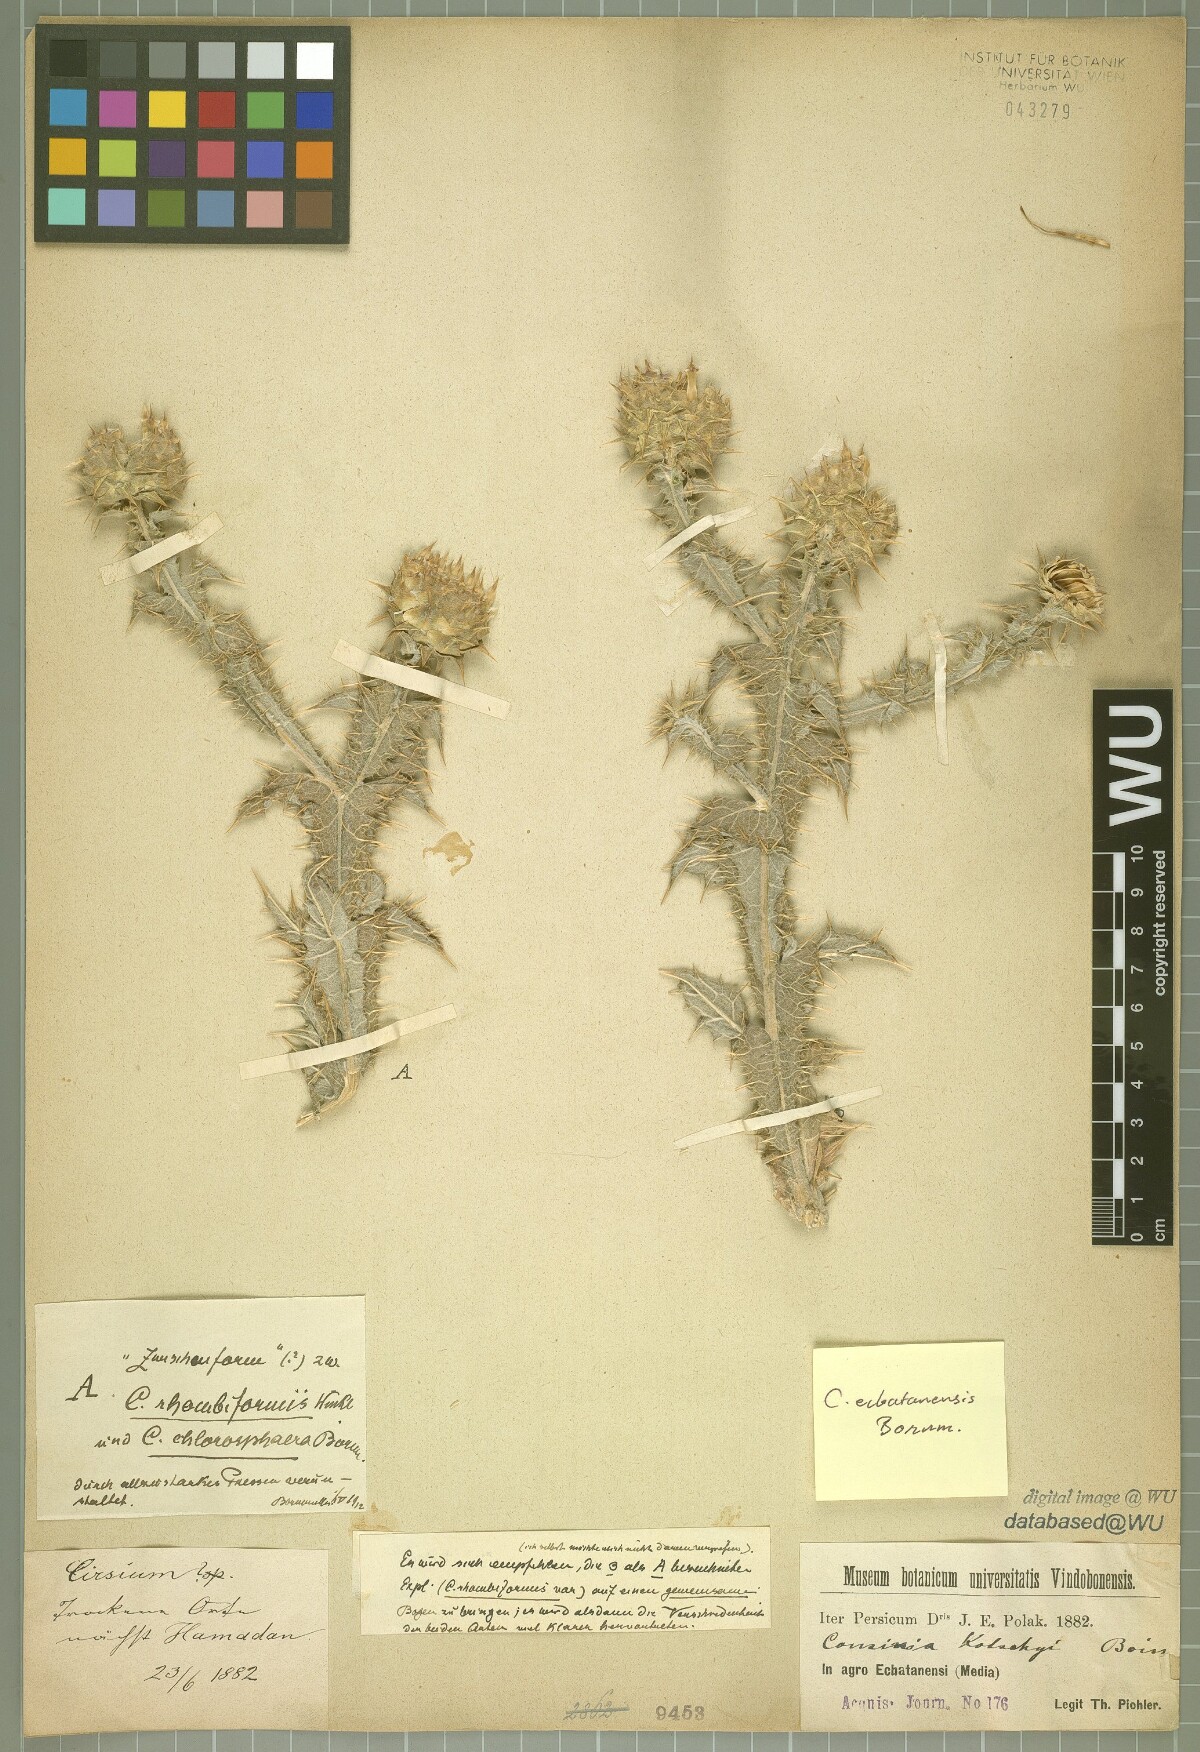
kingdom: Plantae
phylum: Tracheophyta
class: Magnoliopsida
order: Asterales
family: Asteraceae
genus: Cousinia
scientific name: Cousinia ecbatanensis
